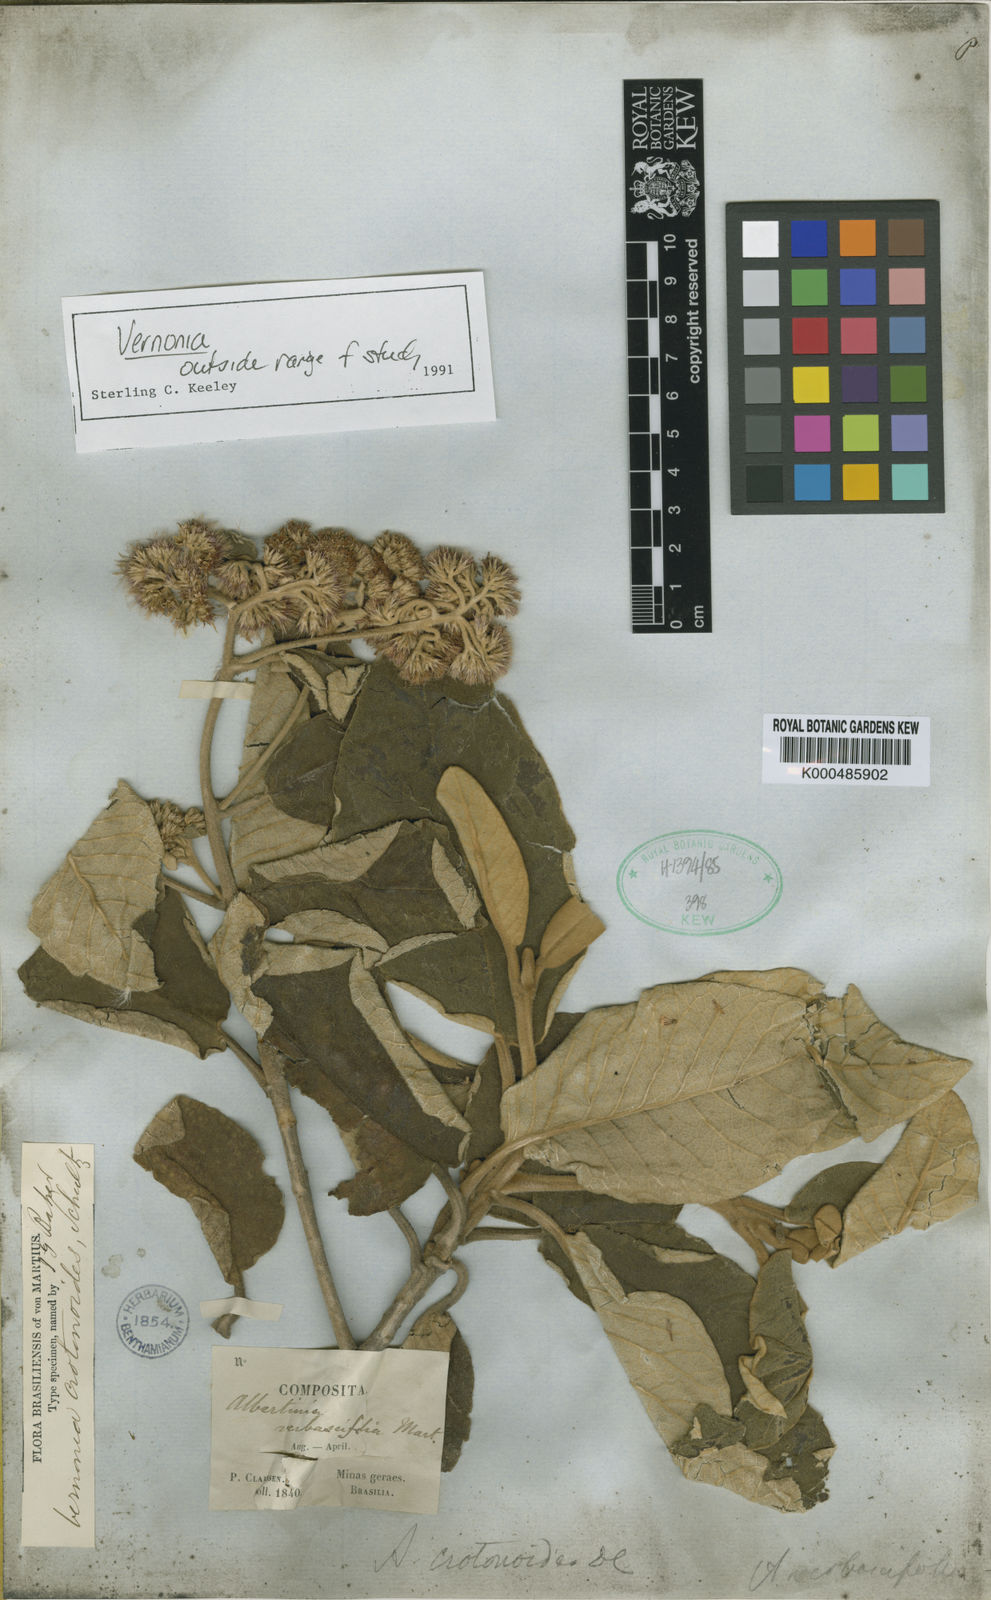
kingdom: Plantae
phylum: Tracheophyta
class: Magnoliopsida
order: Asterales
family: Asteraceae
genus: Chrysolaena
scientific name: Chrysolaena verbascifolia
